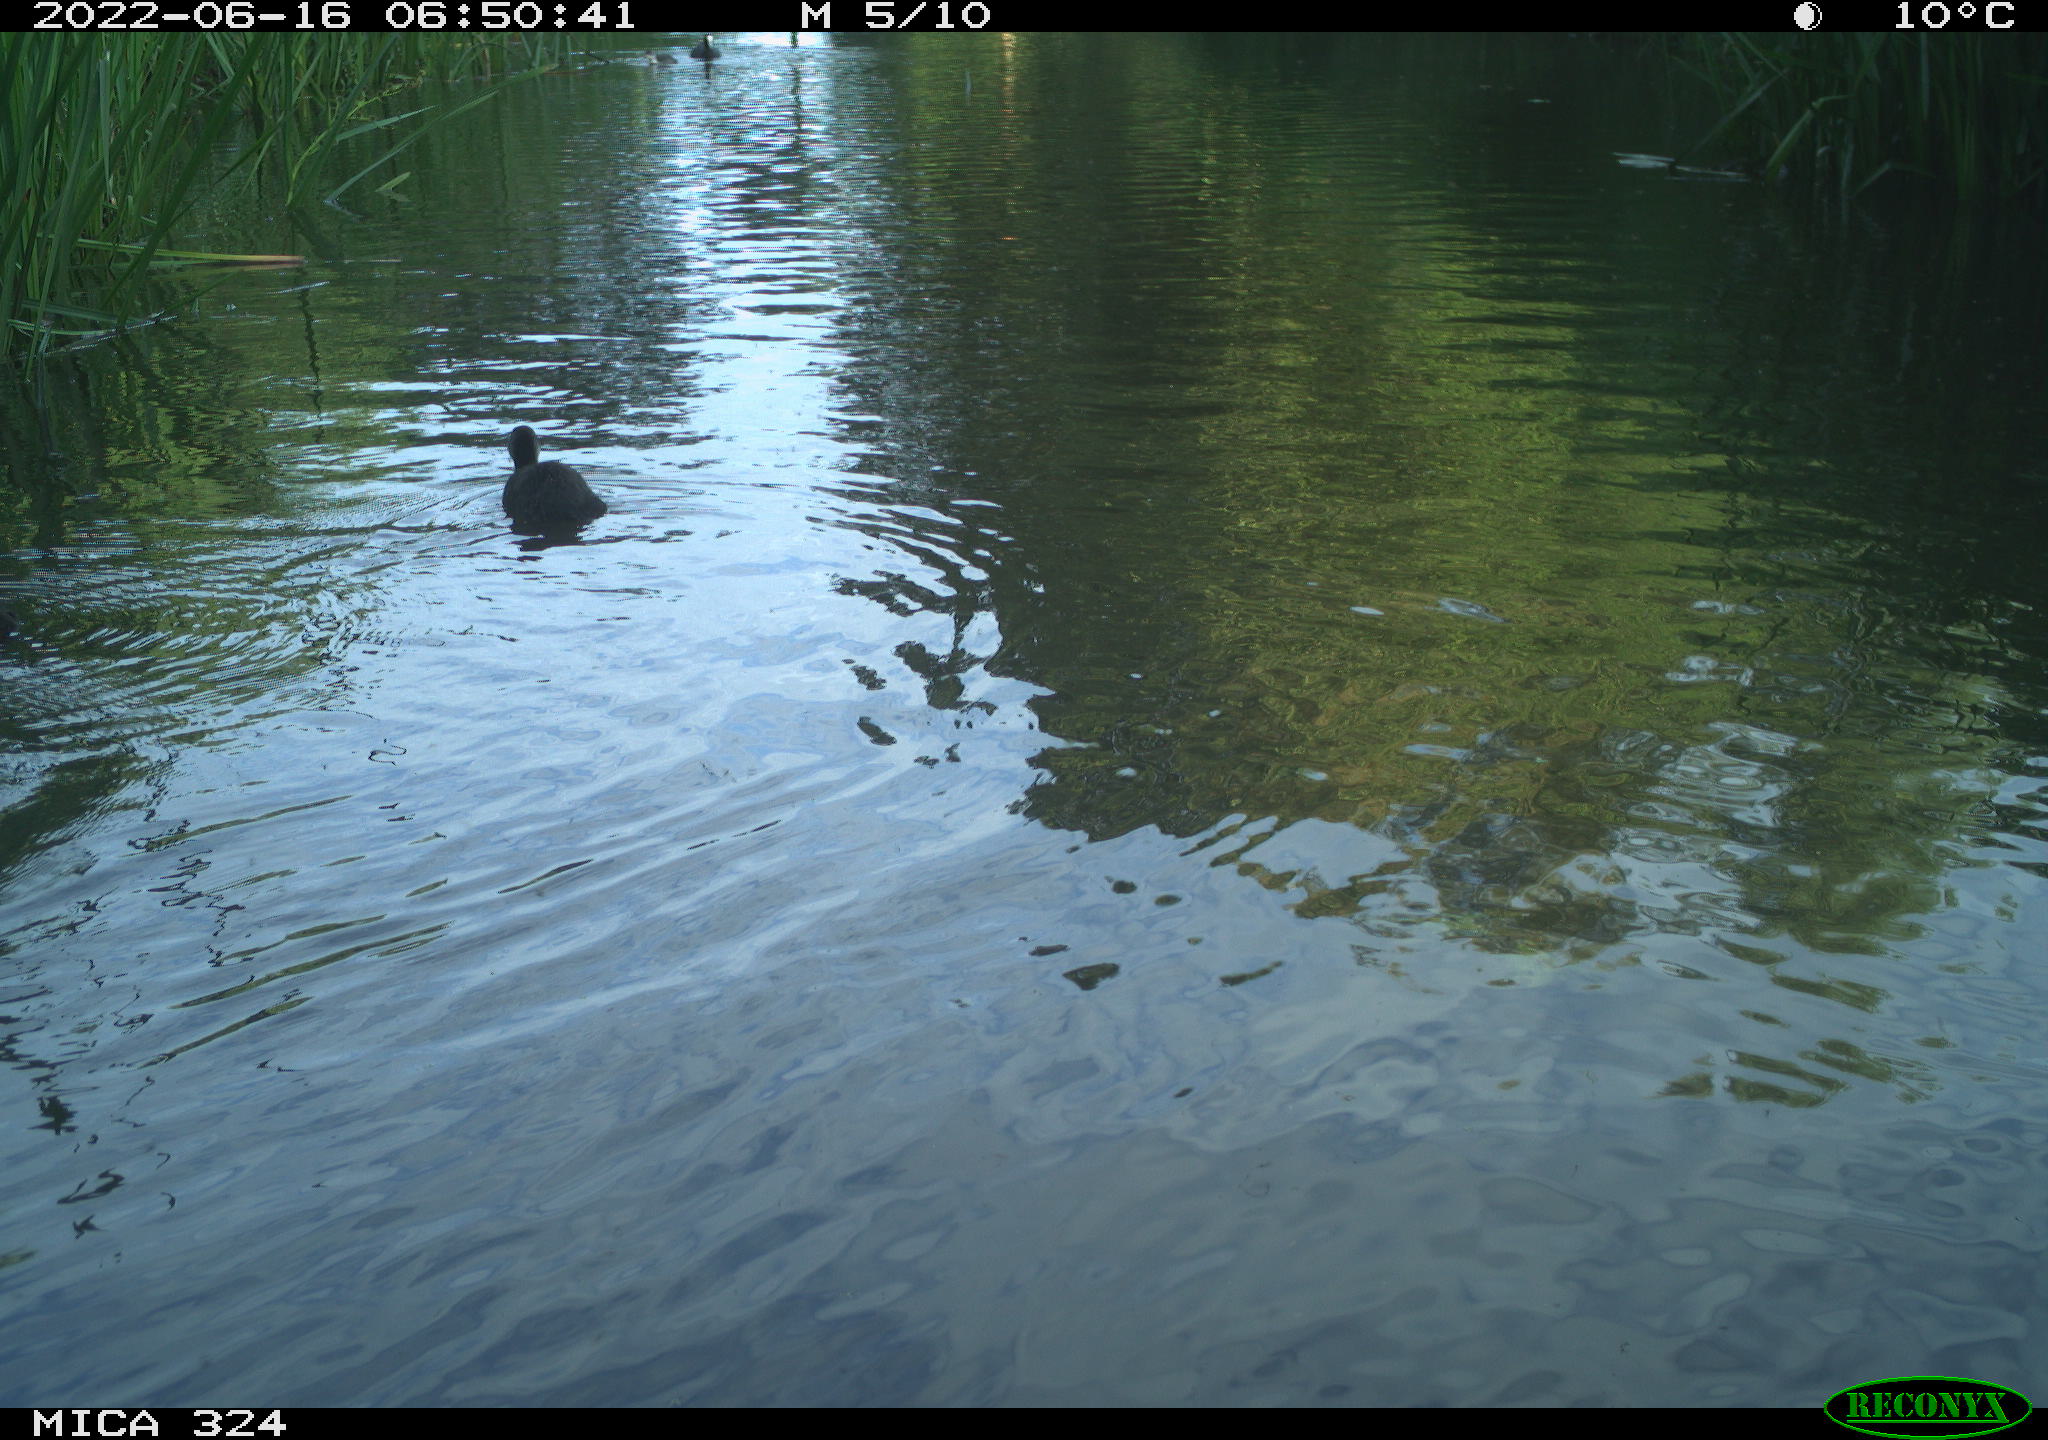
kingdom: Animalia
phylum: Chordata
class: Aves
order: Gruiformes
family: Rallidae
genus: Fulica
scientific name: Fulica atra
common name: Eurasian coot
